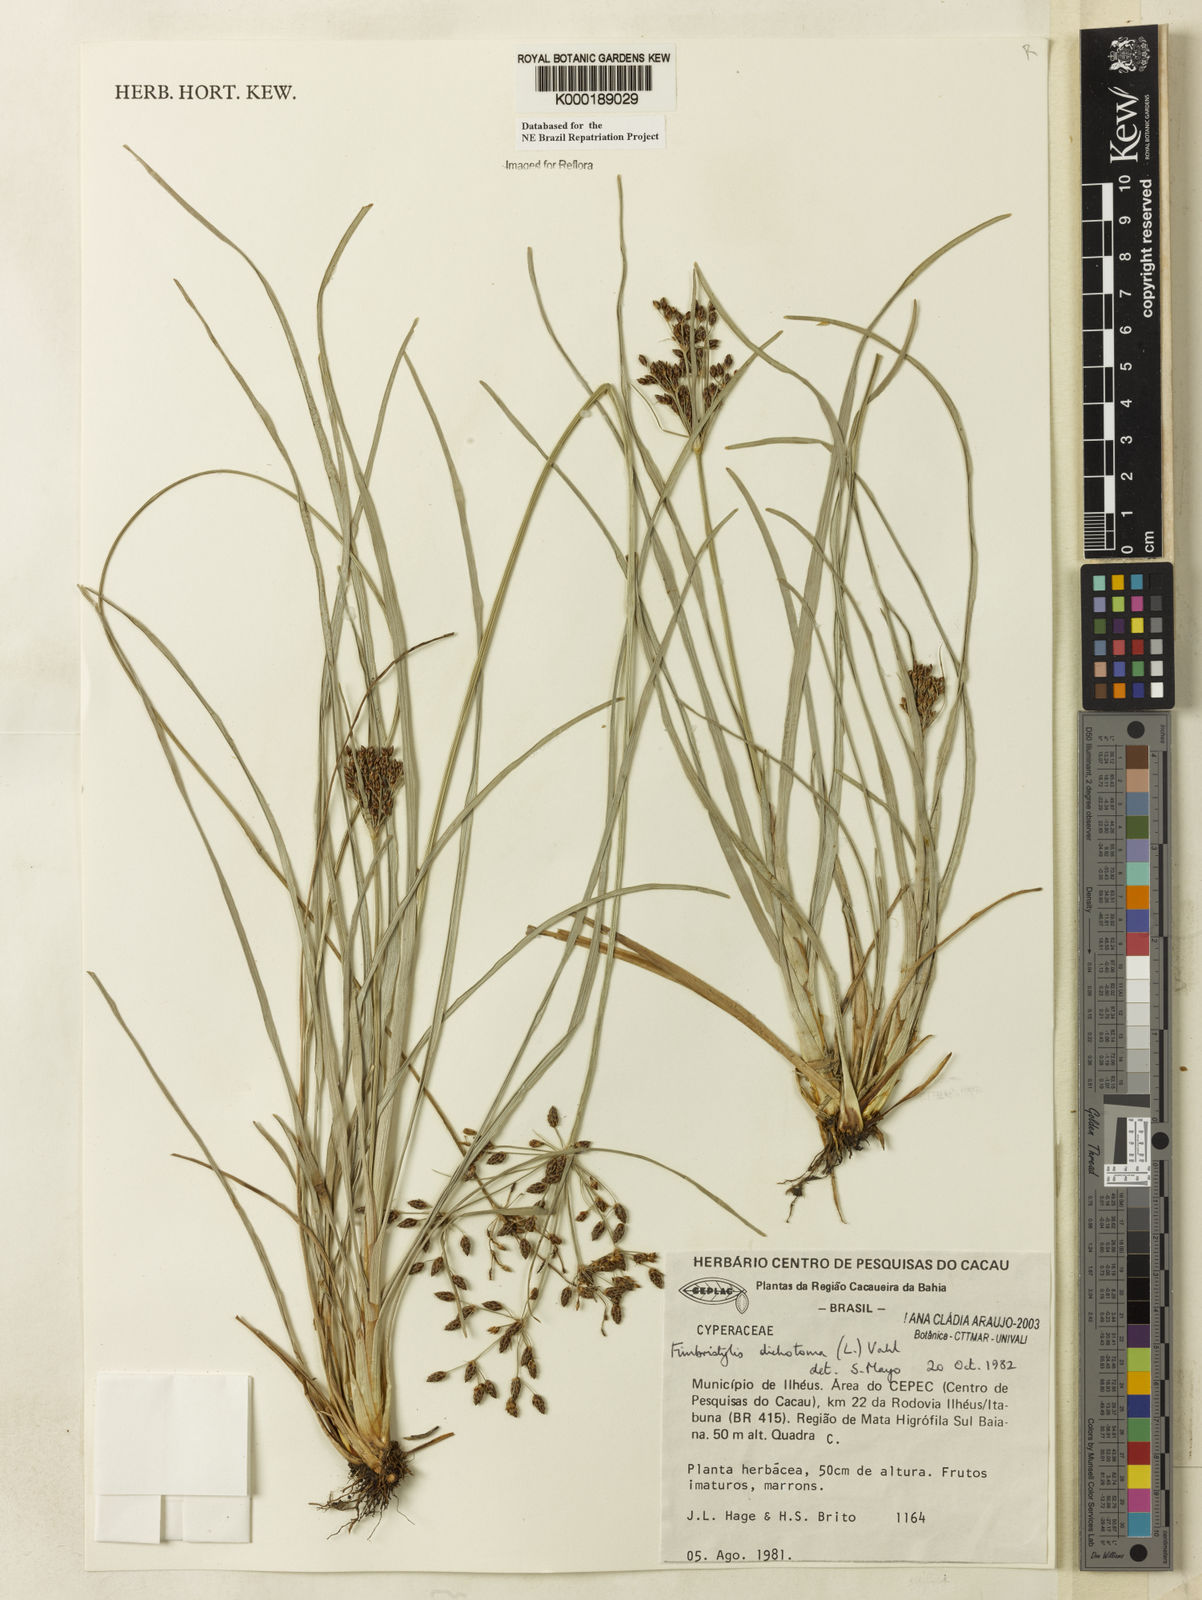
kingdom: Plantae
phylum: Tracheophyta
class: Liliopsida
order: Poales
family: Cyperaceae
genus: Fimbristylis
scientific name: Fimbristylis dichotoma
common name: Forked fimbry
